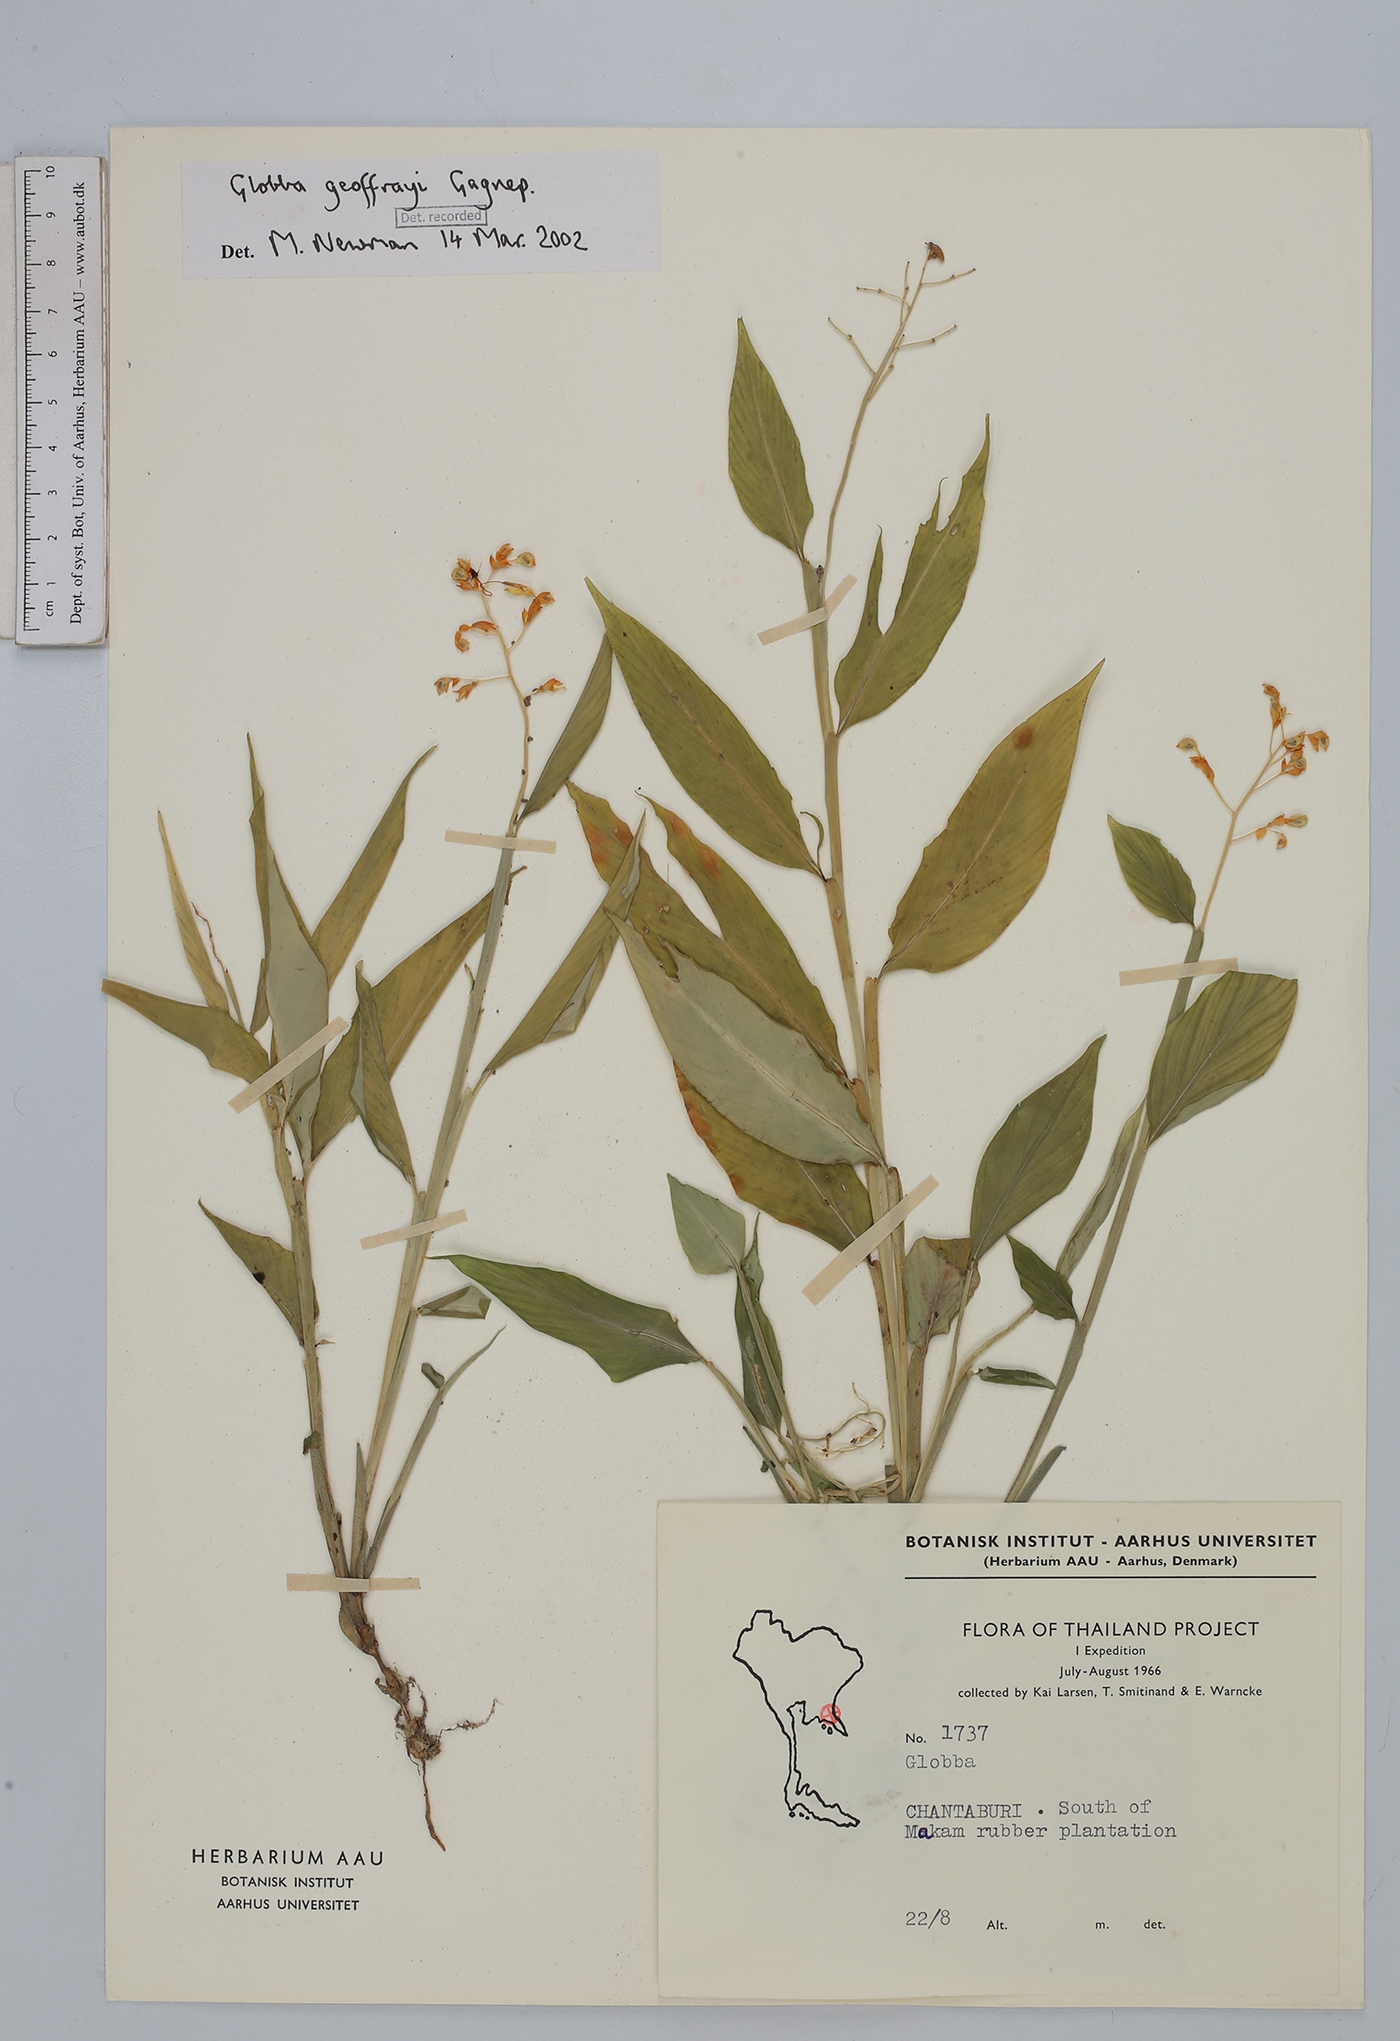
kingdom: Plantae
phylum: Tracheophyta
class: Liliopsida
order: Zingiberales
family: Zingiberaceae
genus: Globba
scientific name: Globba geoffrayi
